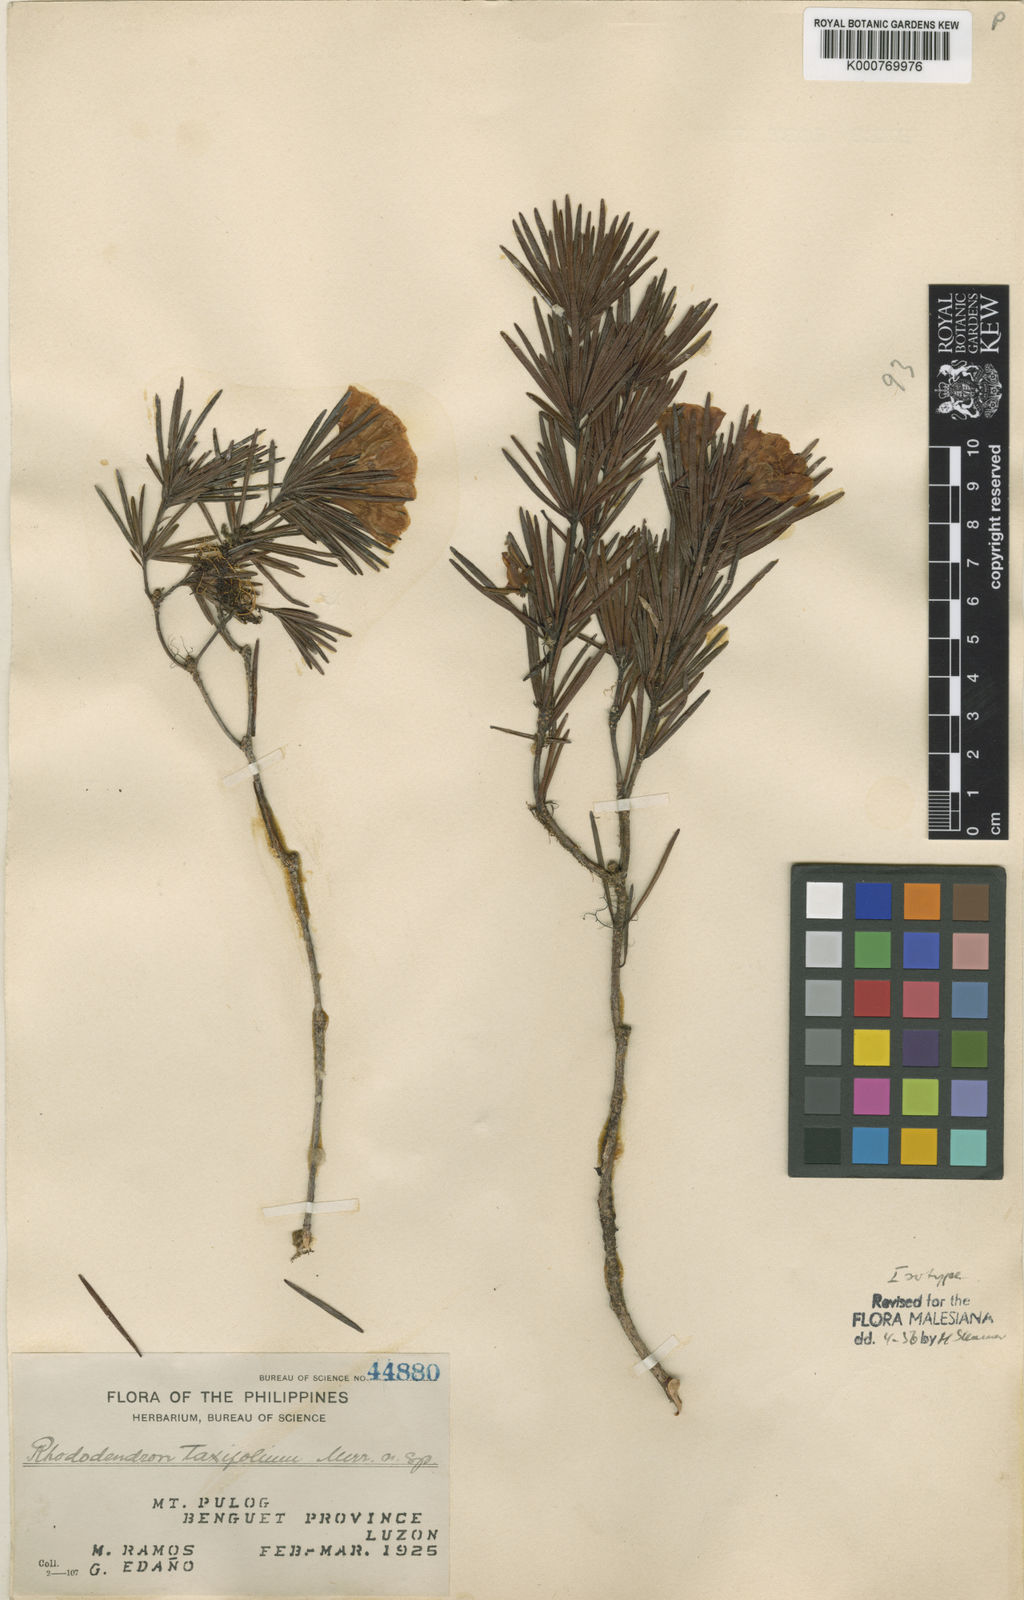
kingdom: Plantae
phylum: Tracheophyta
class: Magnoliopsida
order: Ericales
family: Ericaceae
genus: Rhododendron
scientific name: Rhododendron taxifolium
